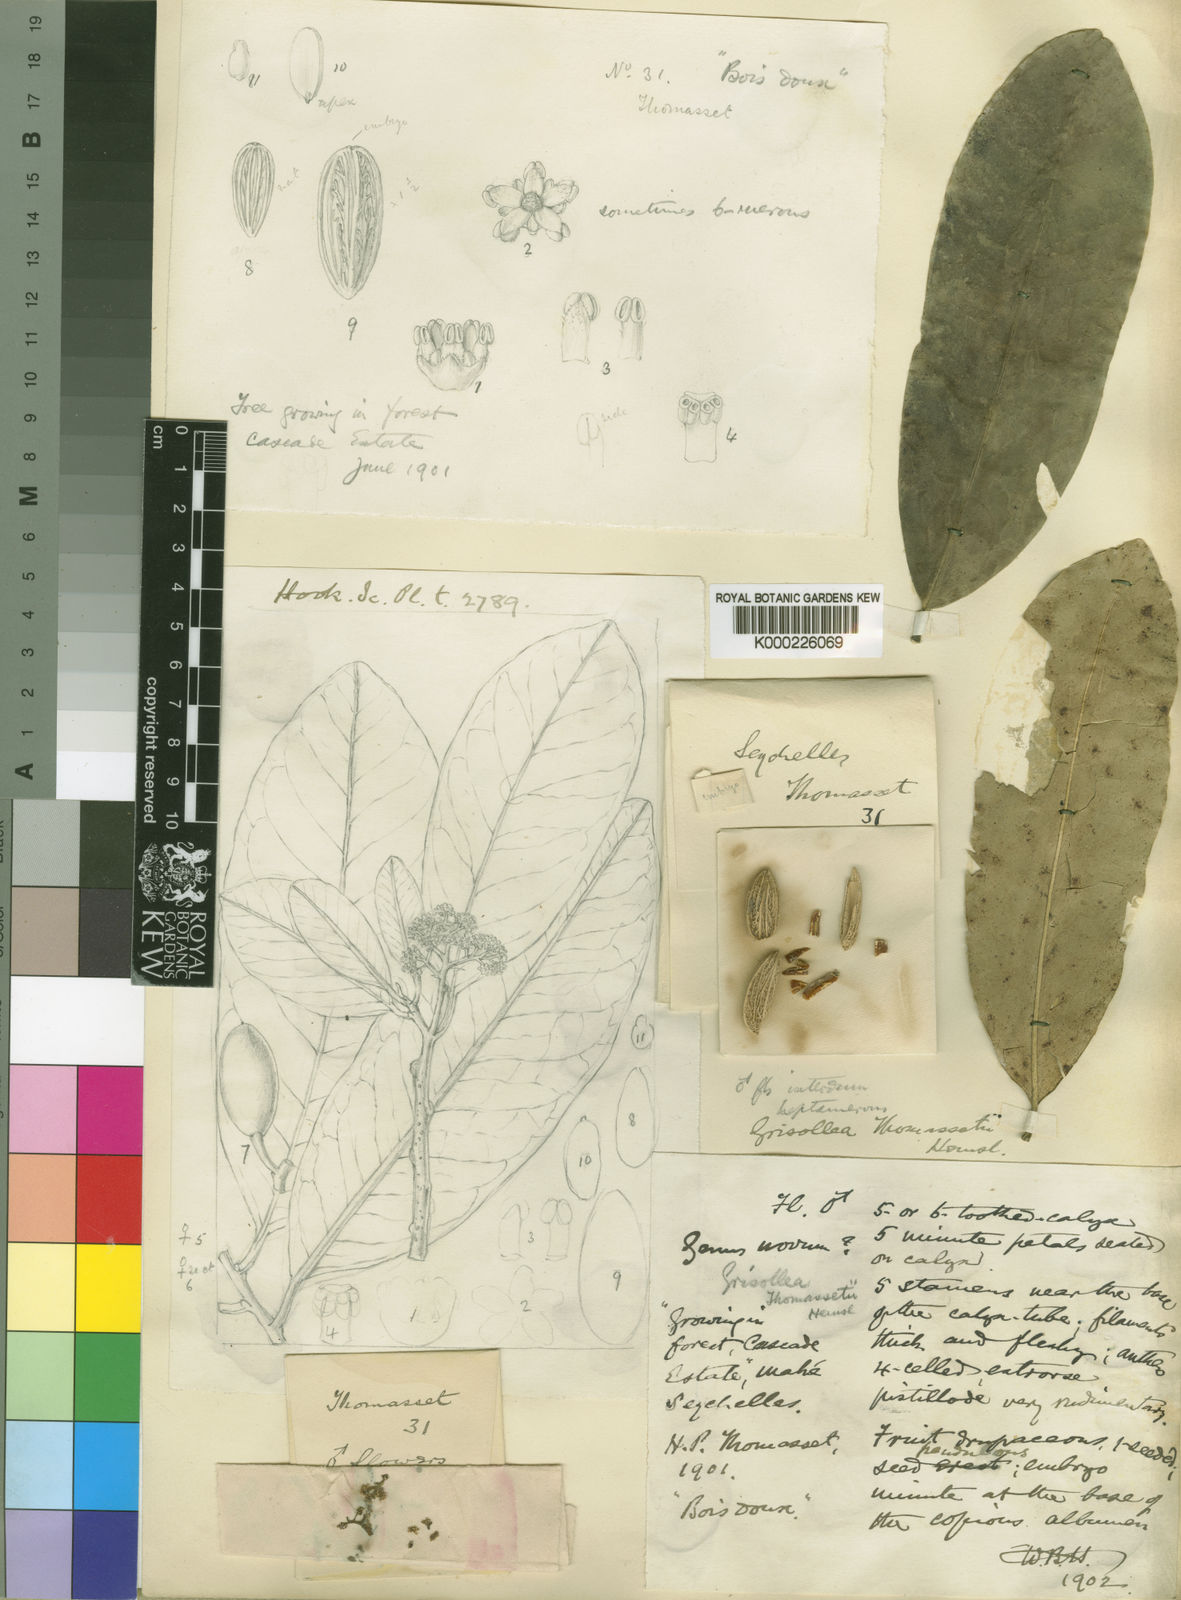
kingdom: Plantae
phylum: Tracheophyta
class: Magnoliopsida
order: Cardiopteridales
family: Stemonuraceae
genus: Grisollea
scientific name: Grisollea thomassetii
